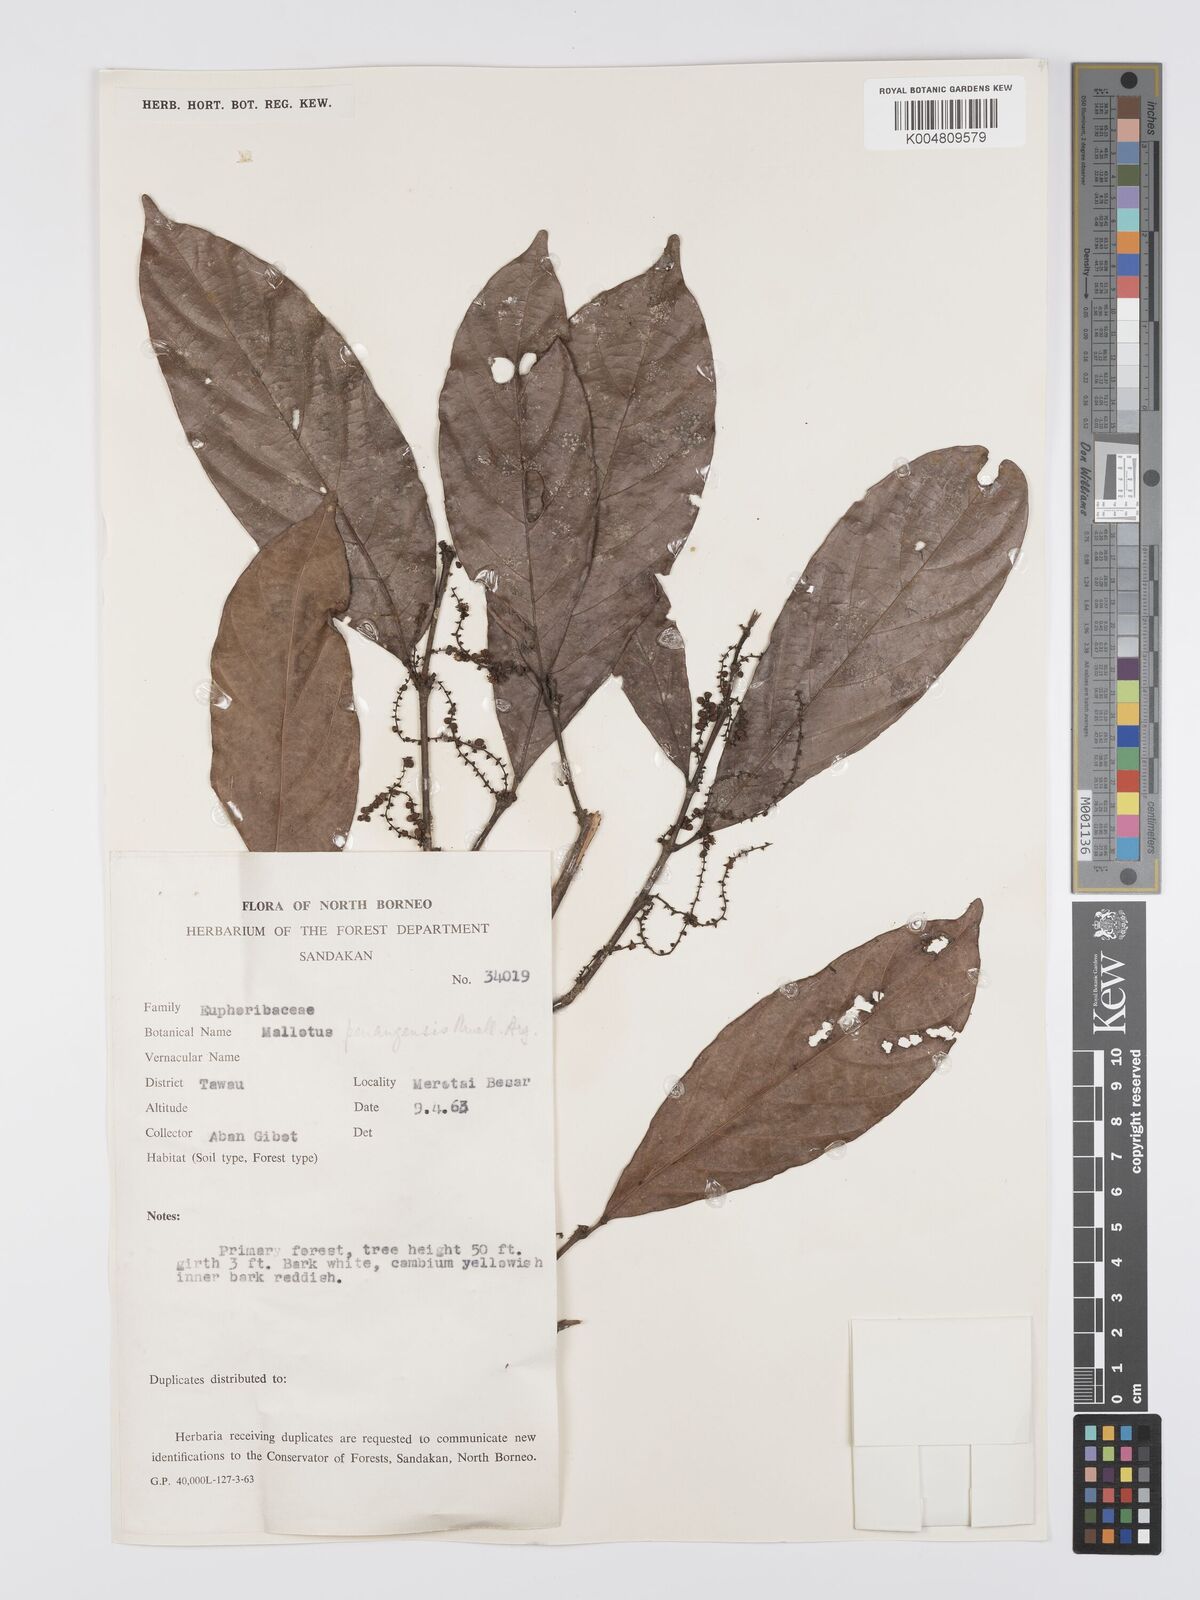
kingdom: Plantae
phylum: Tracheophyta
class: Magnoliopsida
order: Malpighiales
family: Euphorbiaceae
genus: Hancea
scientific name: Hancea penangensis
